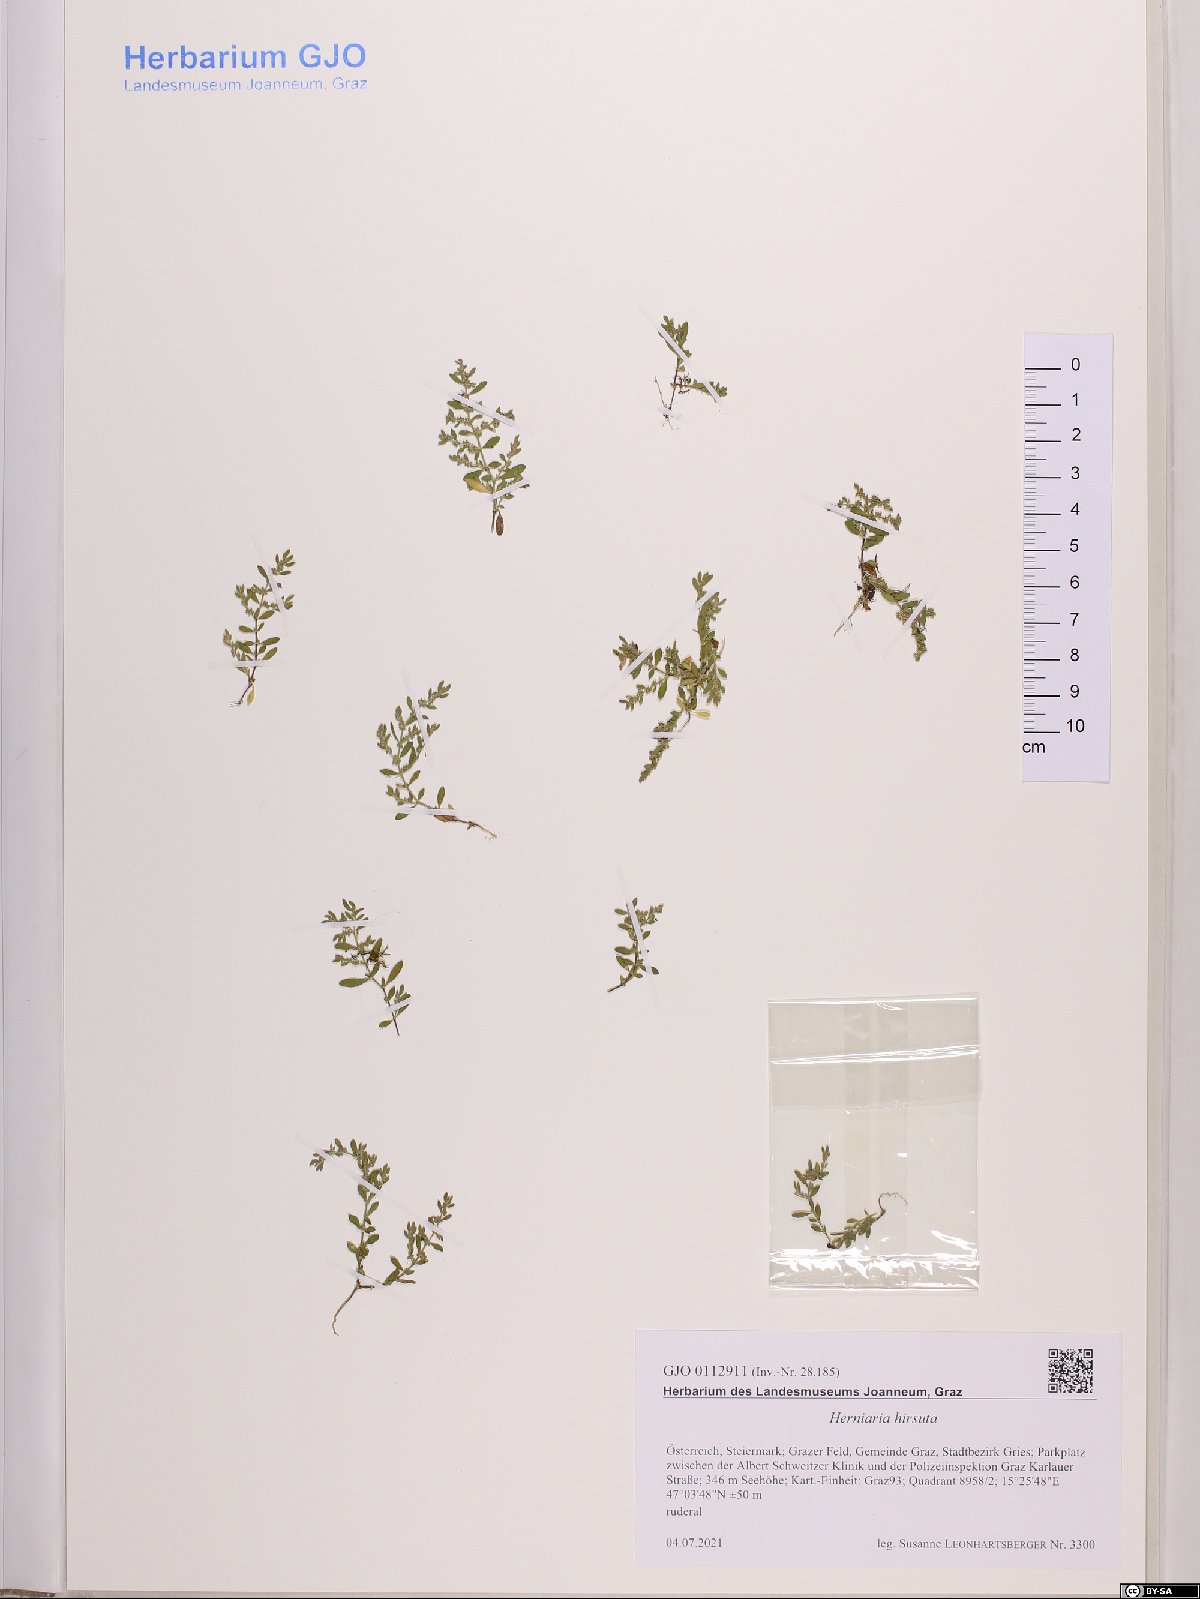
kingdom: Plantae
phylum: Tracheophyta
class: Magnoliopsida
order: Caryophyllales
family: Caryophyllaceae
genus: Herniaria
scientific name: Herniaria hirsuta
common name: Hairy rupturewort
